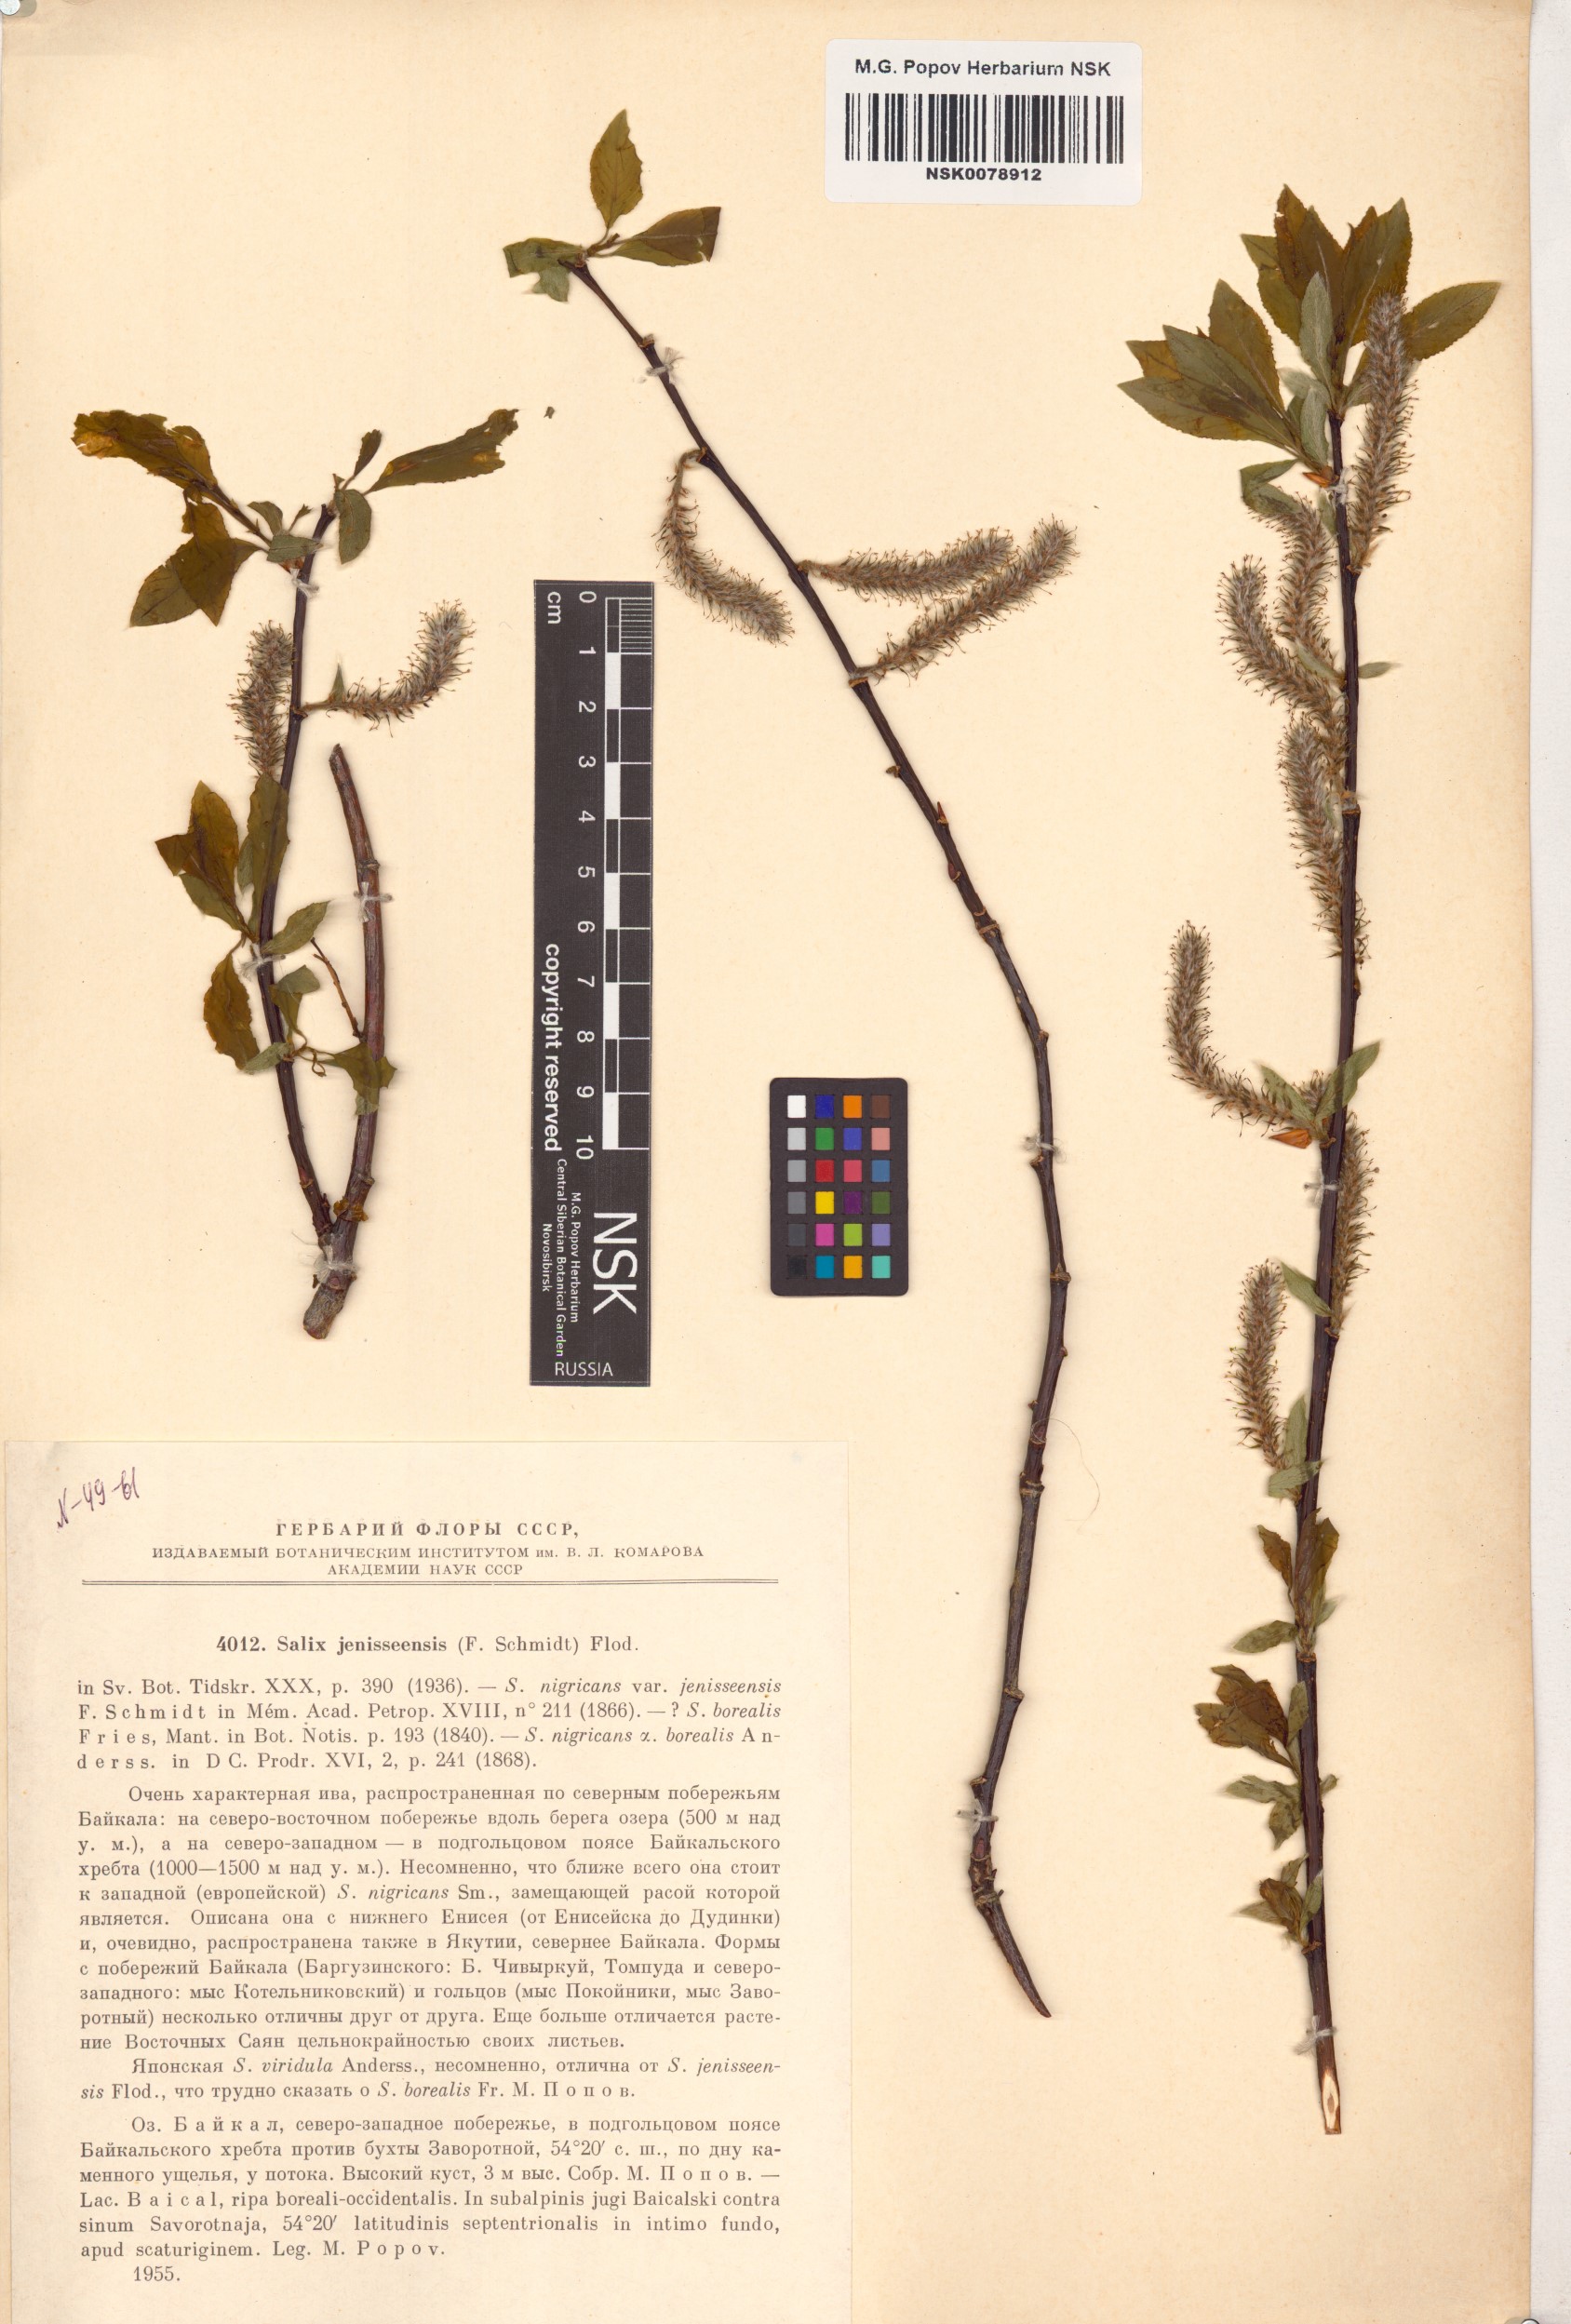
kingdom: Plantae
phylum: Tracheophyta
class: Magnoliopsida
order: Malpighiales
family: Salicaceae
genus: Salix
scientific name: Salix jenisseensis
